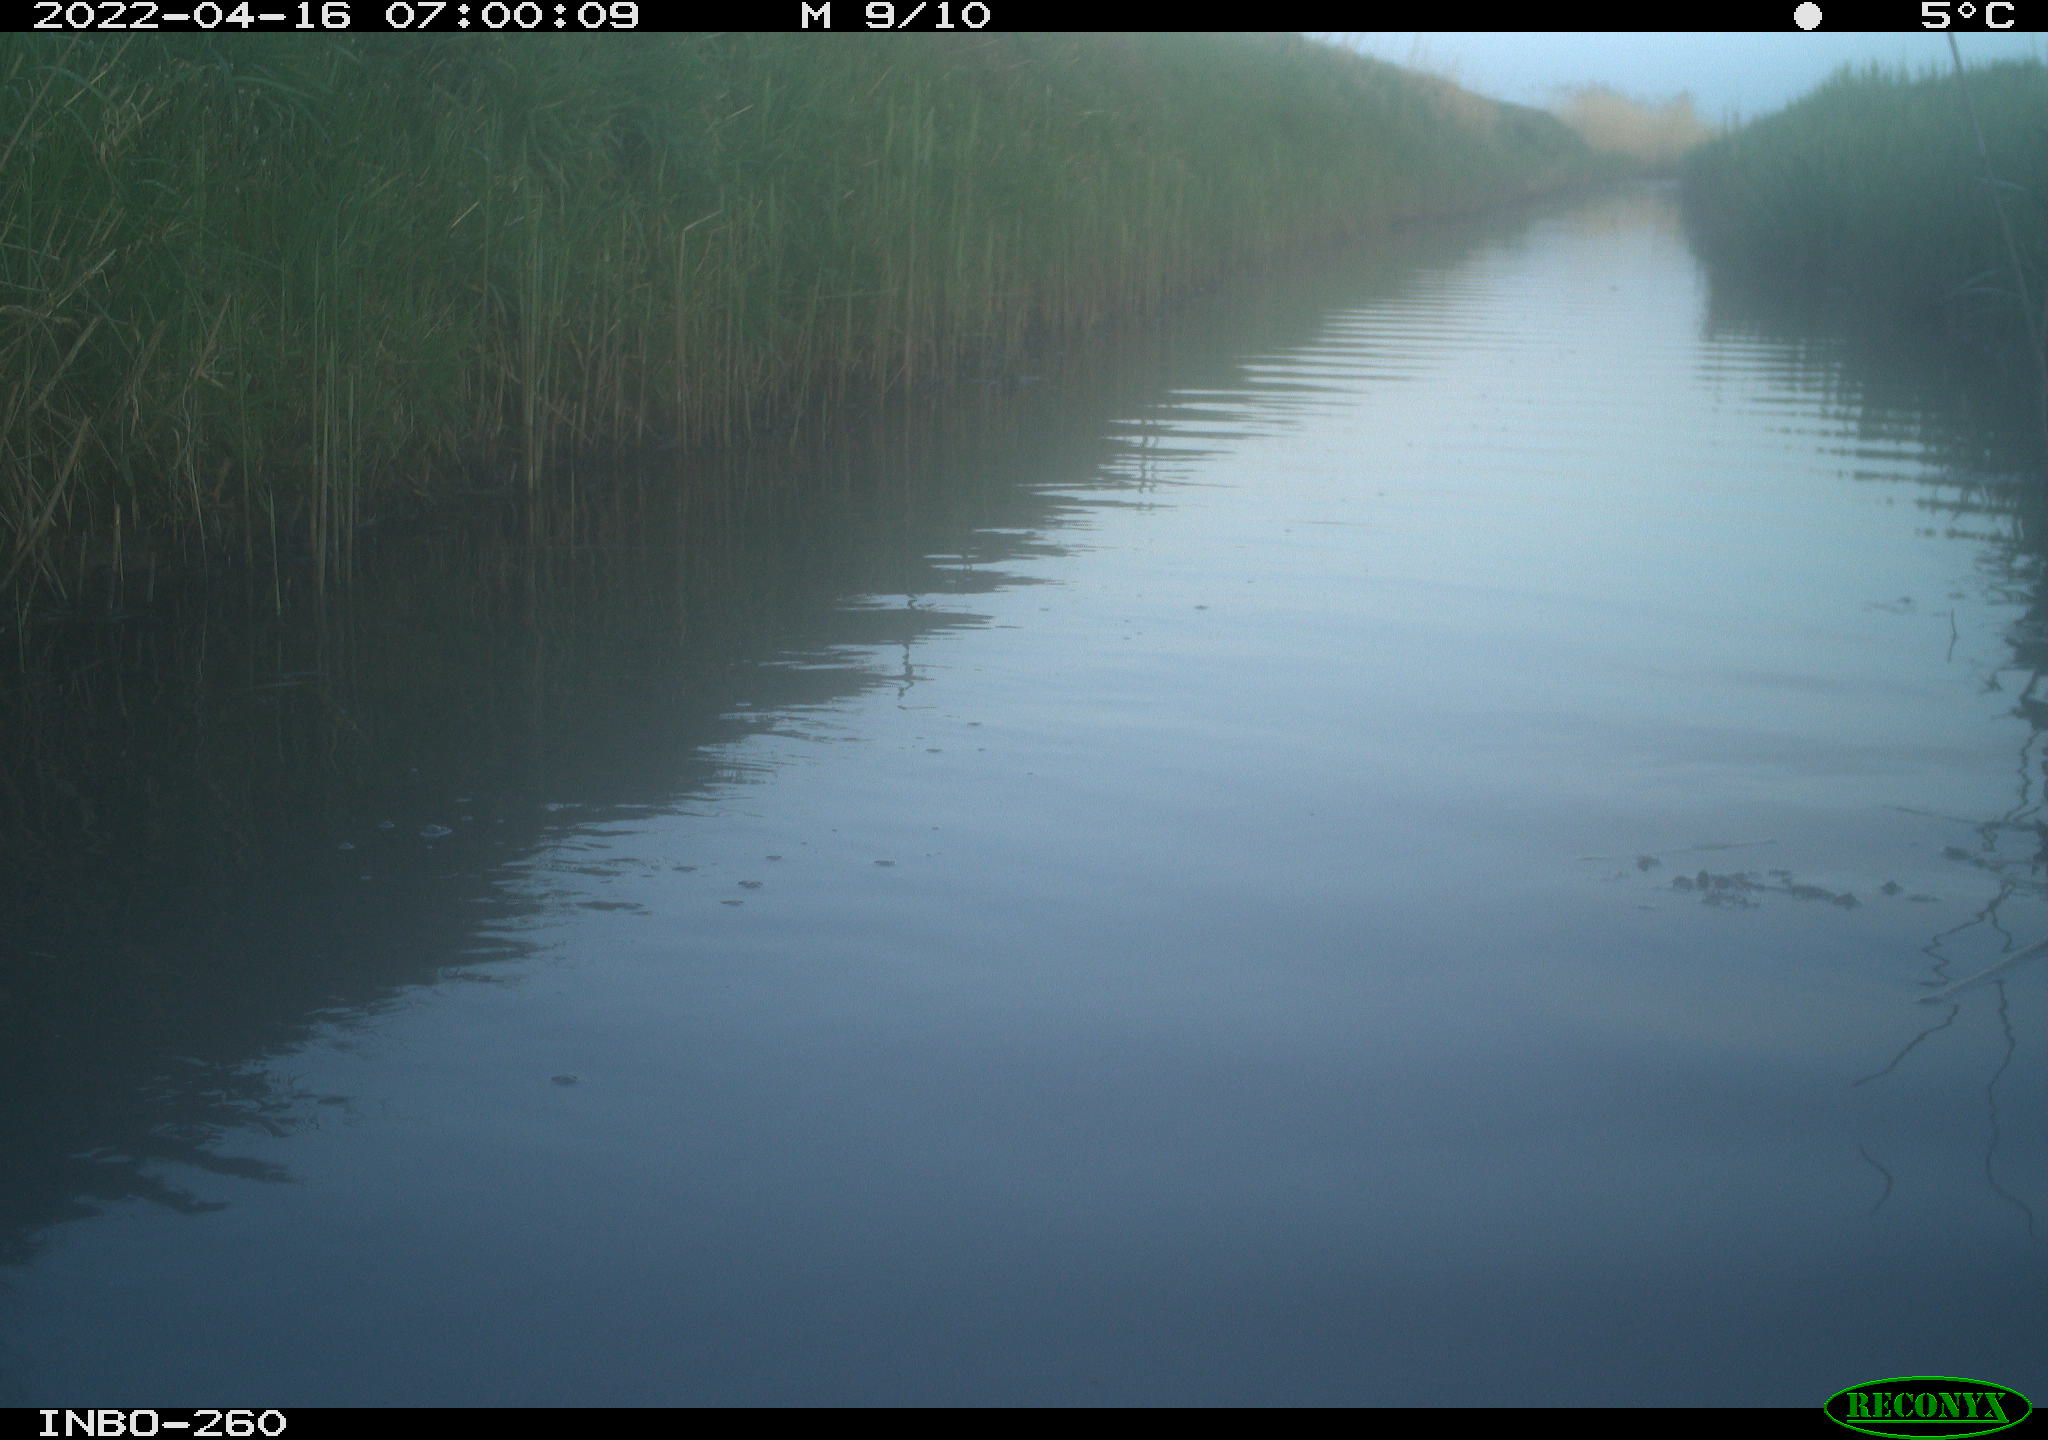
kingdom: Animalia
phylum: Chordata
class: Aves
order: Gruiformes
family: Rallidae
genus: Fulica
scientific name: Fulica atra
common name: Eurasian coot
